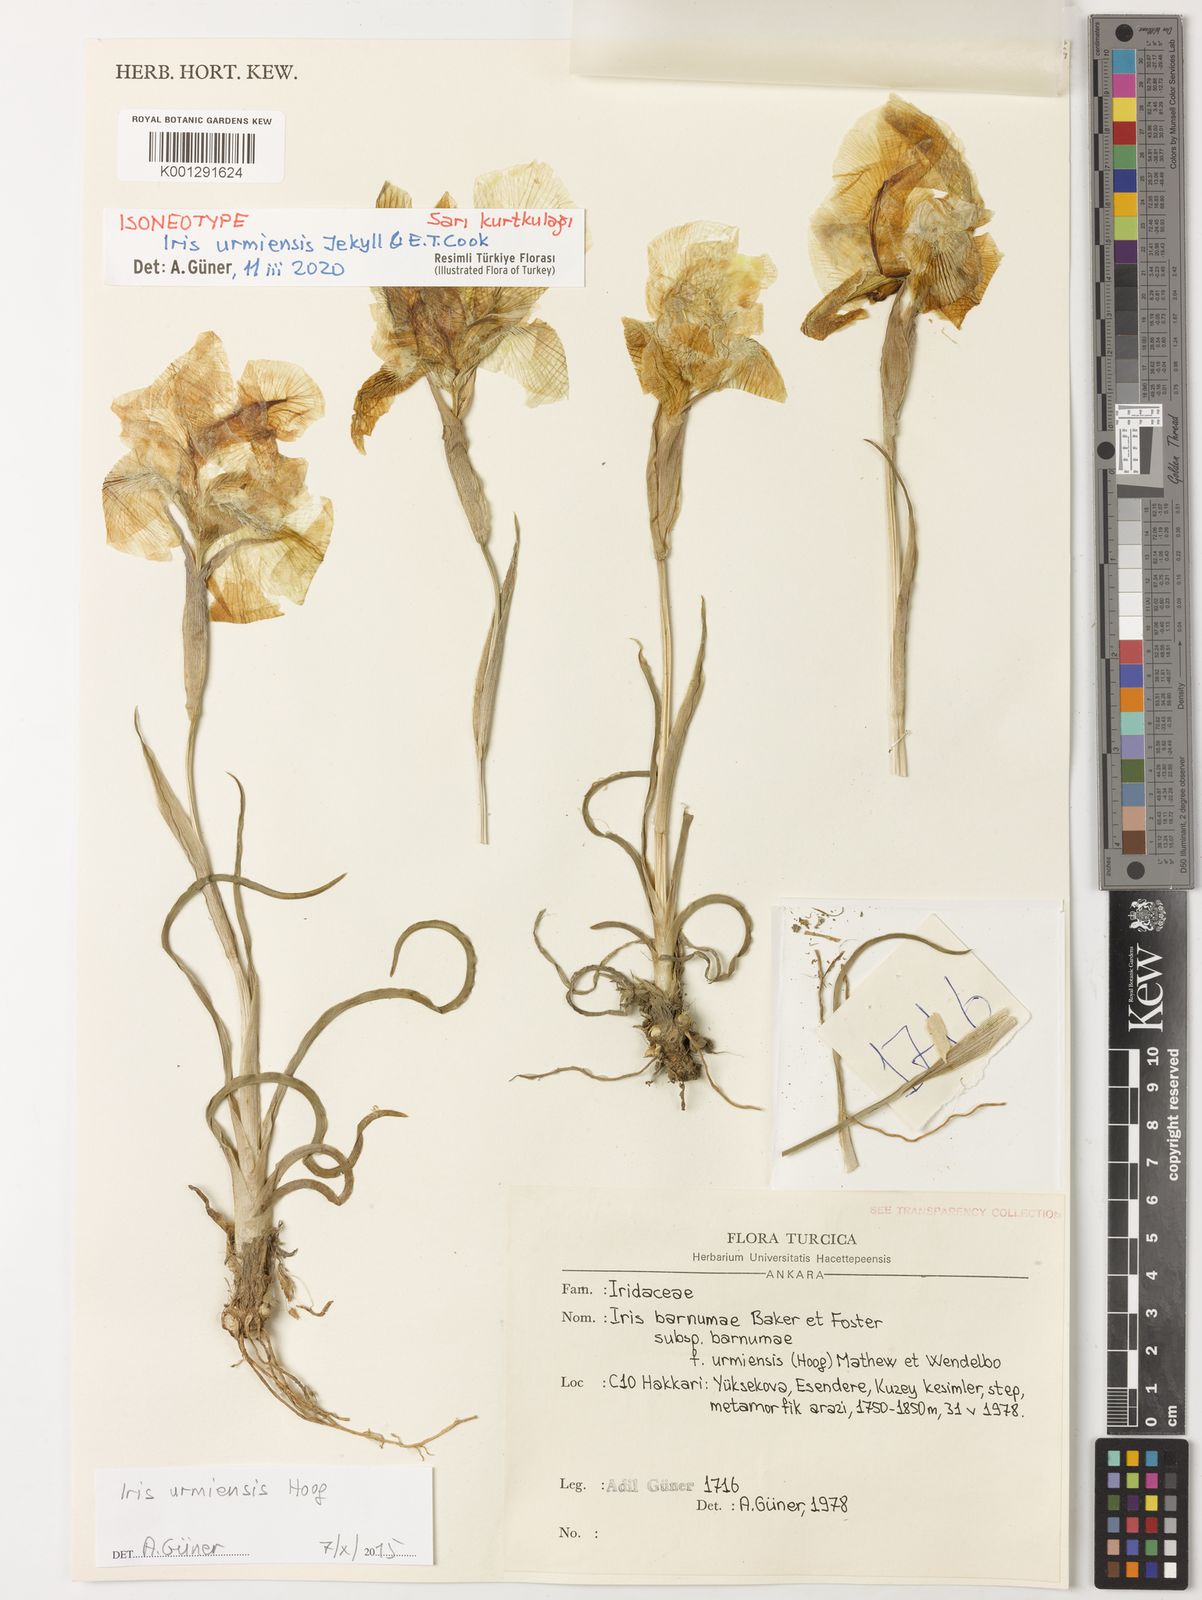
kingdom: Plantae
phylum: Tracheophyta
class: Liliopsida
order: Asparagales
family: Iridaceae
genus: Iris
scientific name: Iris urmiensis
